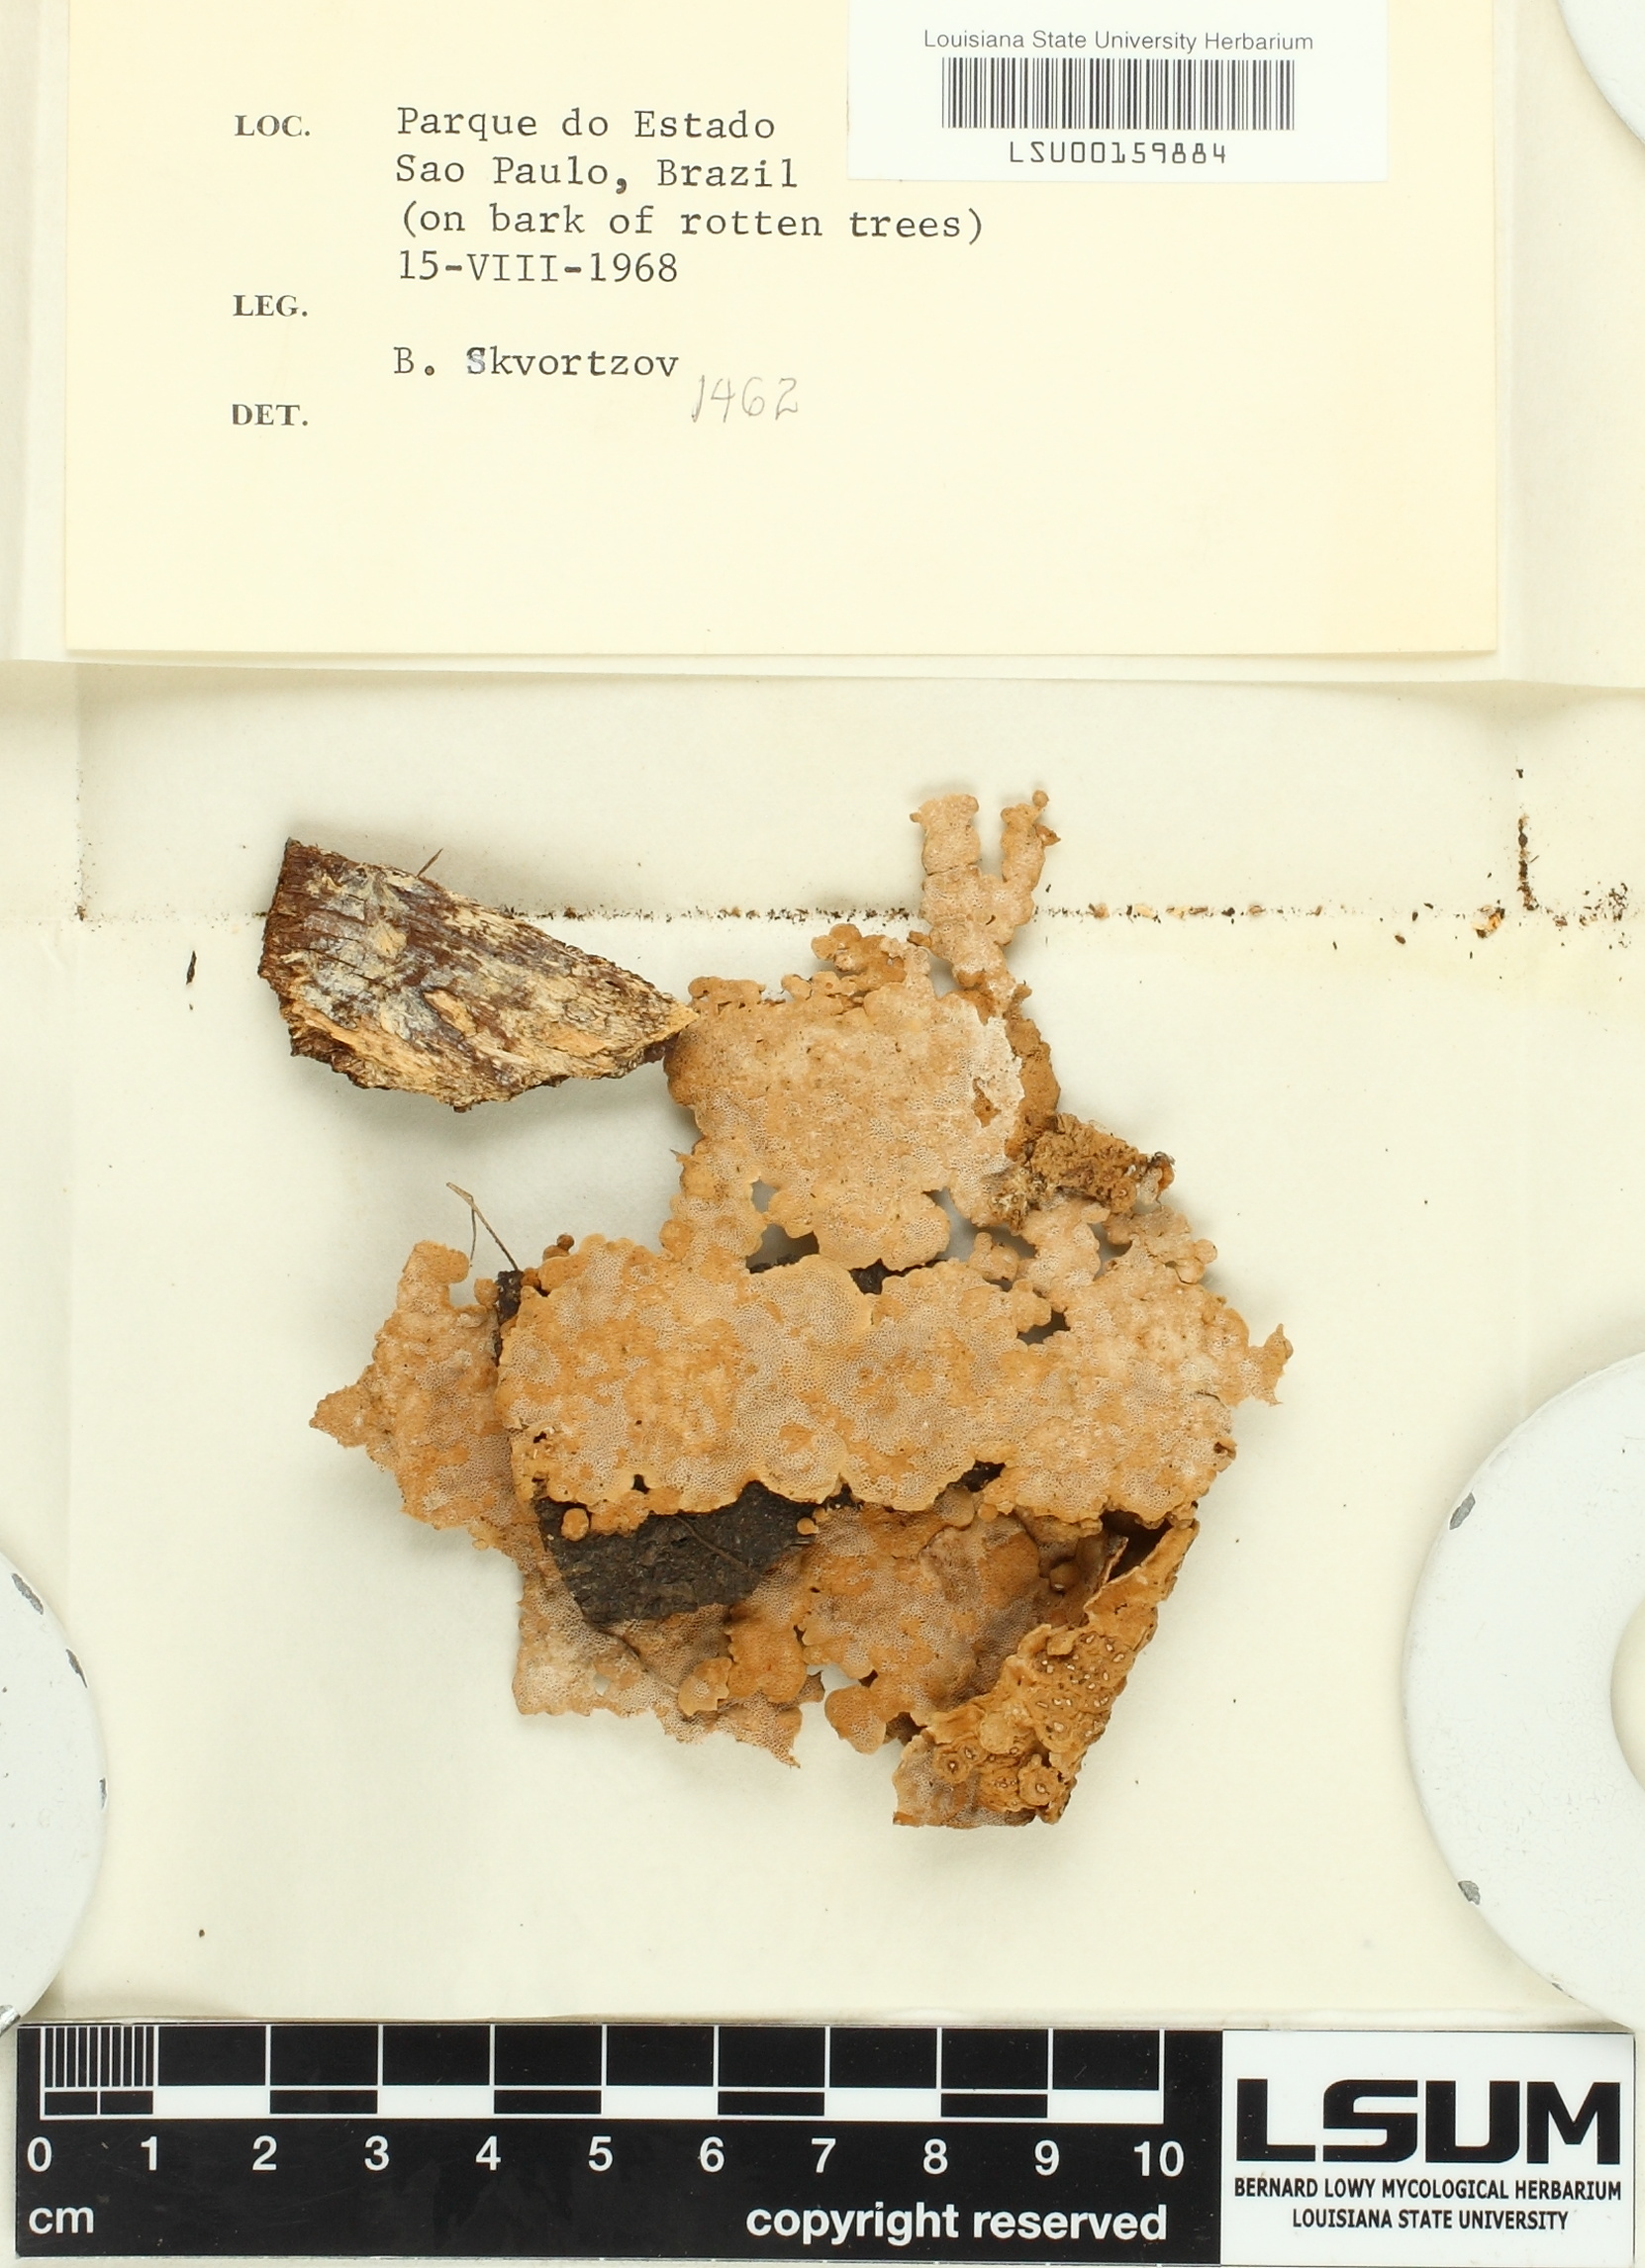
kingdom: Fungi
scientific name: Fungi
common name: Fungi
